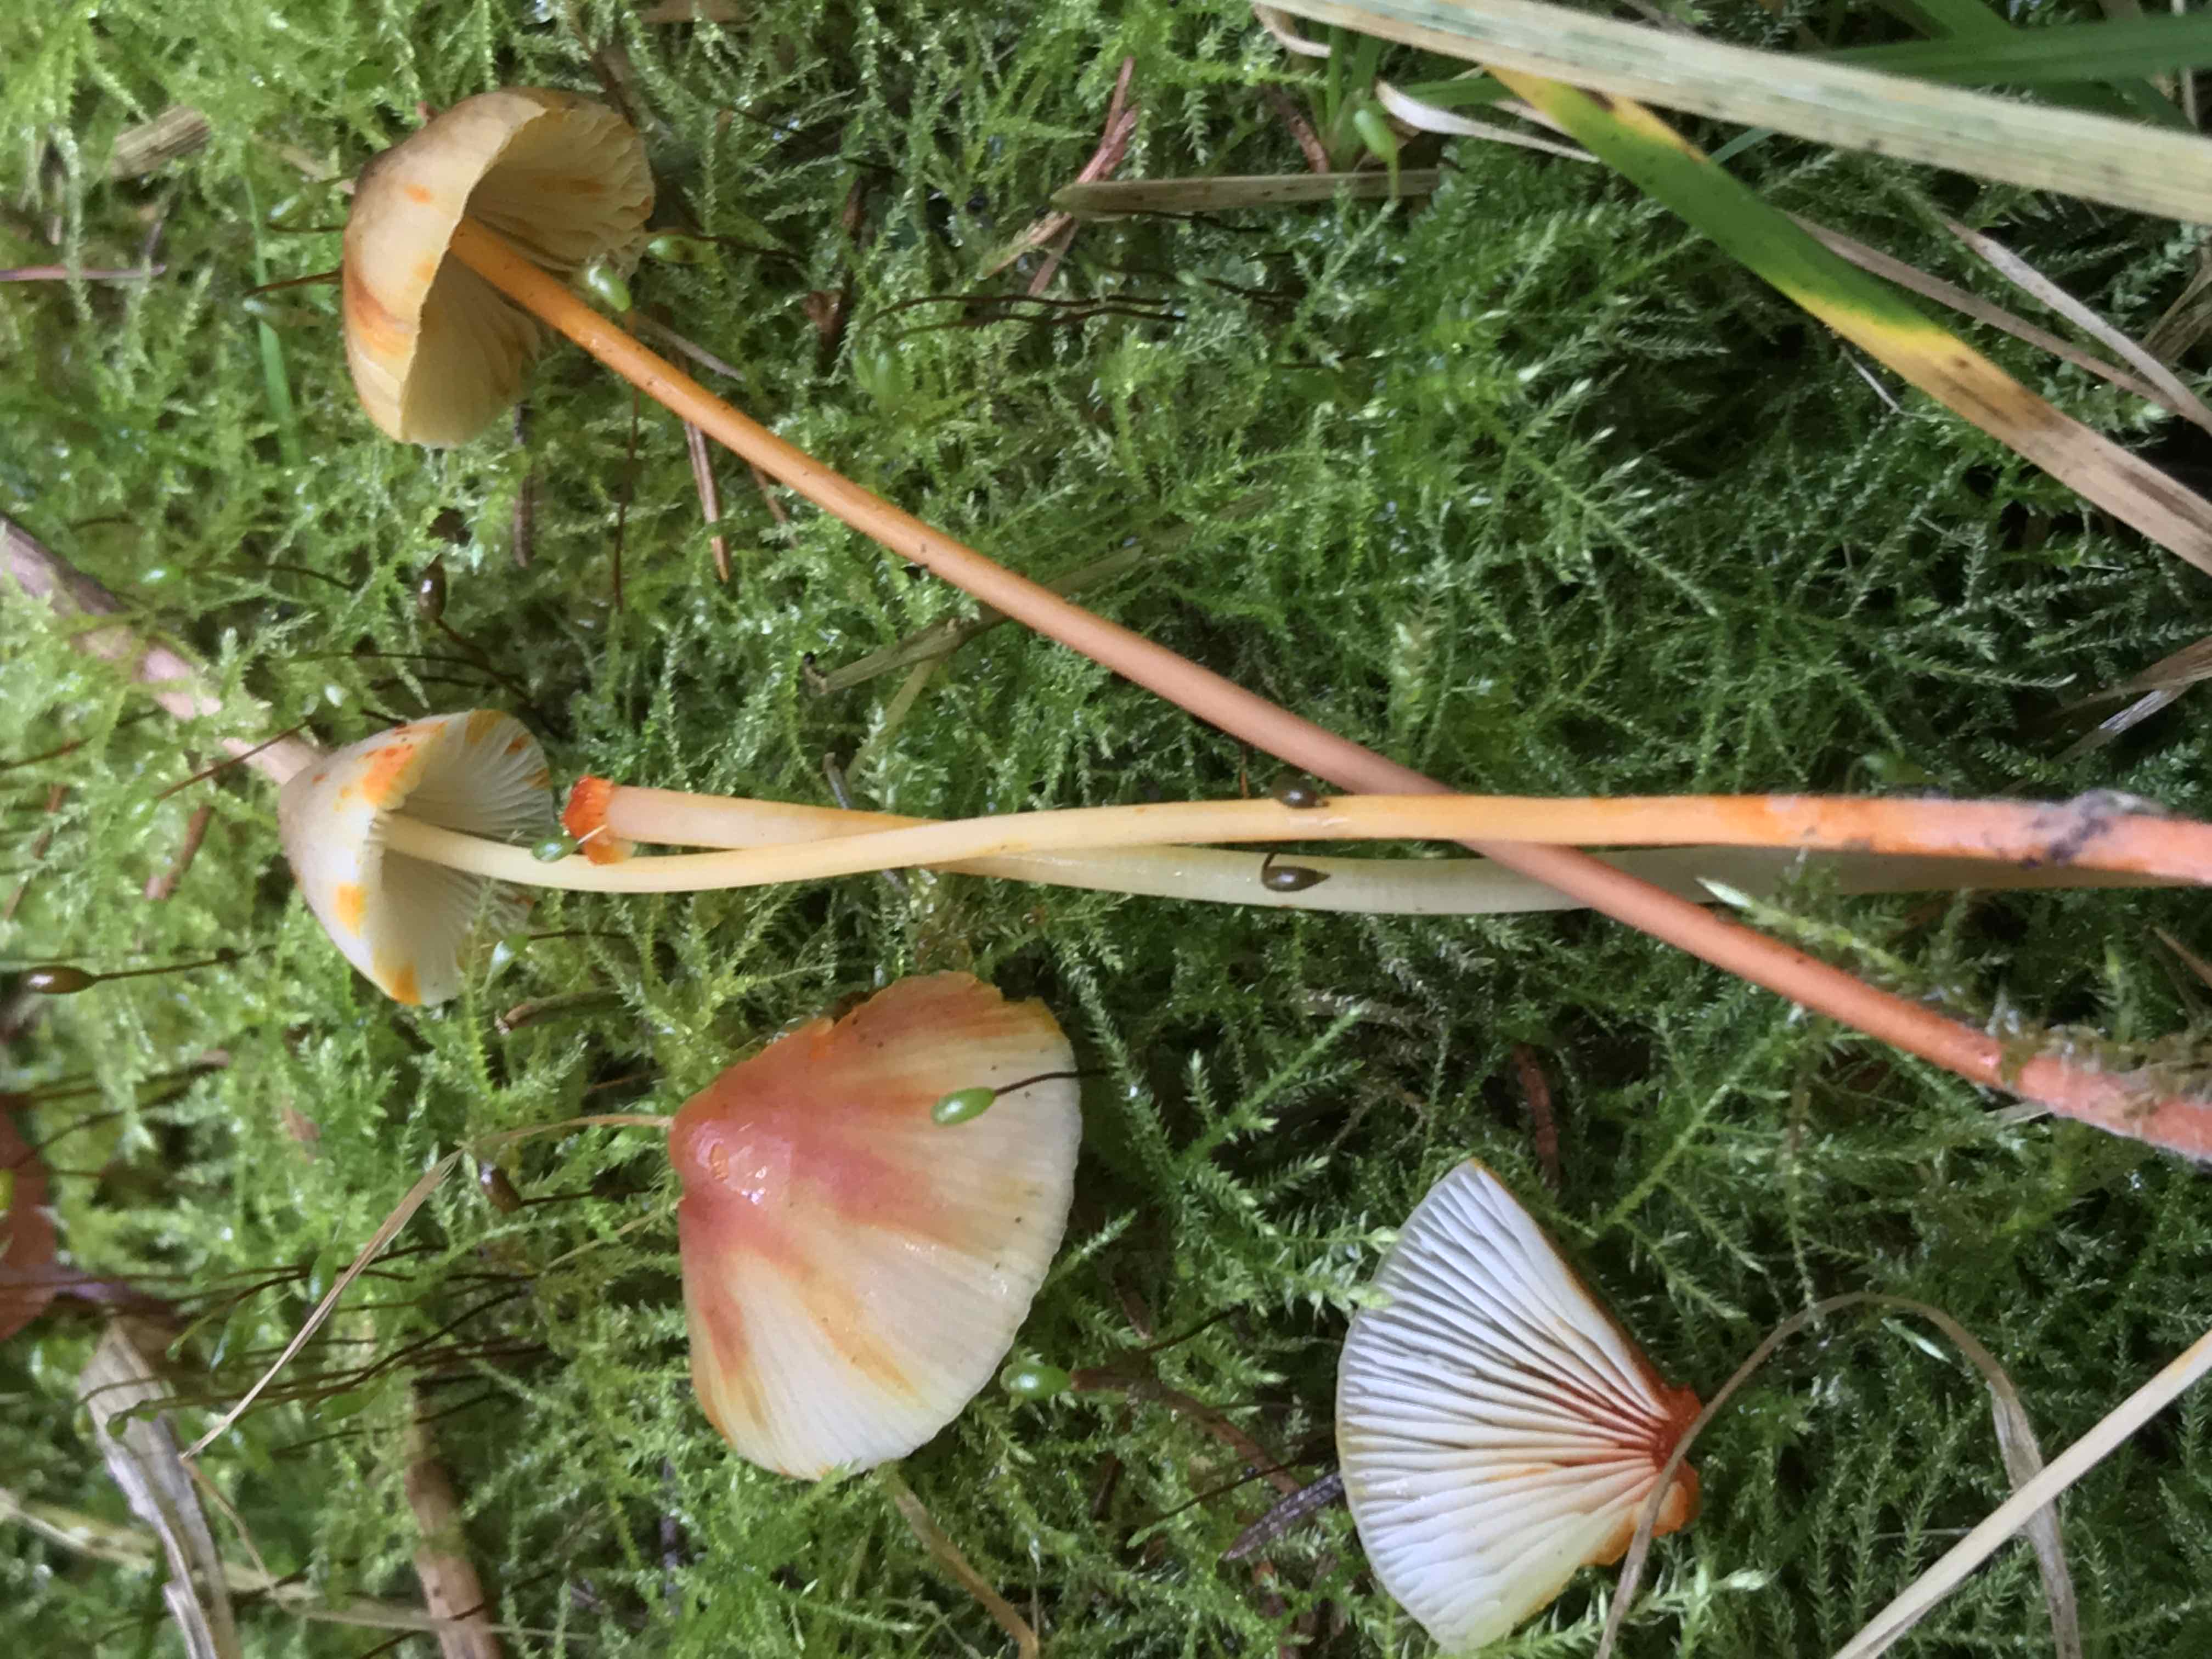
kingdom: Fungi
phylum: Basidiomycota
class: Agaricomycetes
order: Agaricales
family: Mycenaceae
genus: Mycena
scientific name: Mycena crocata
